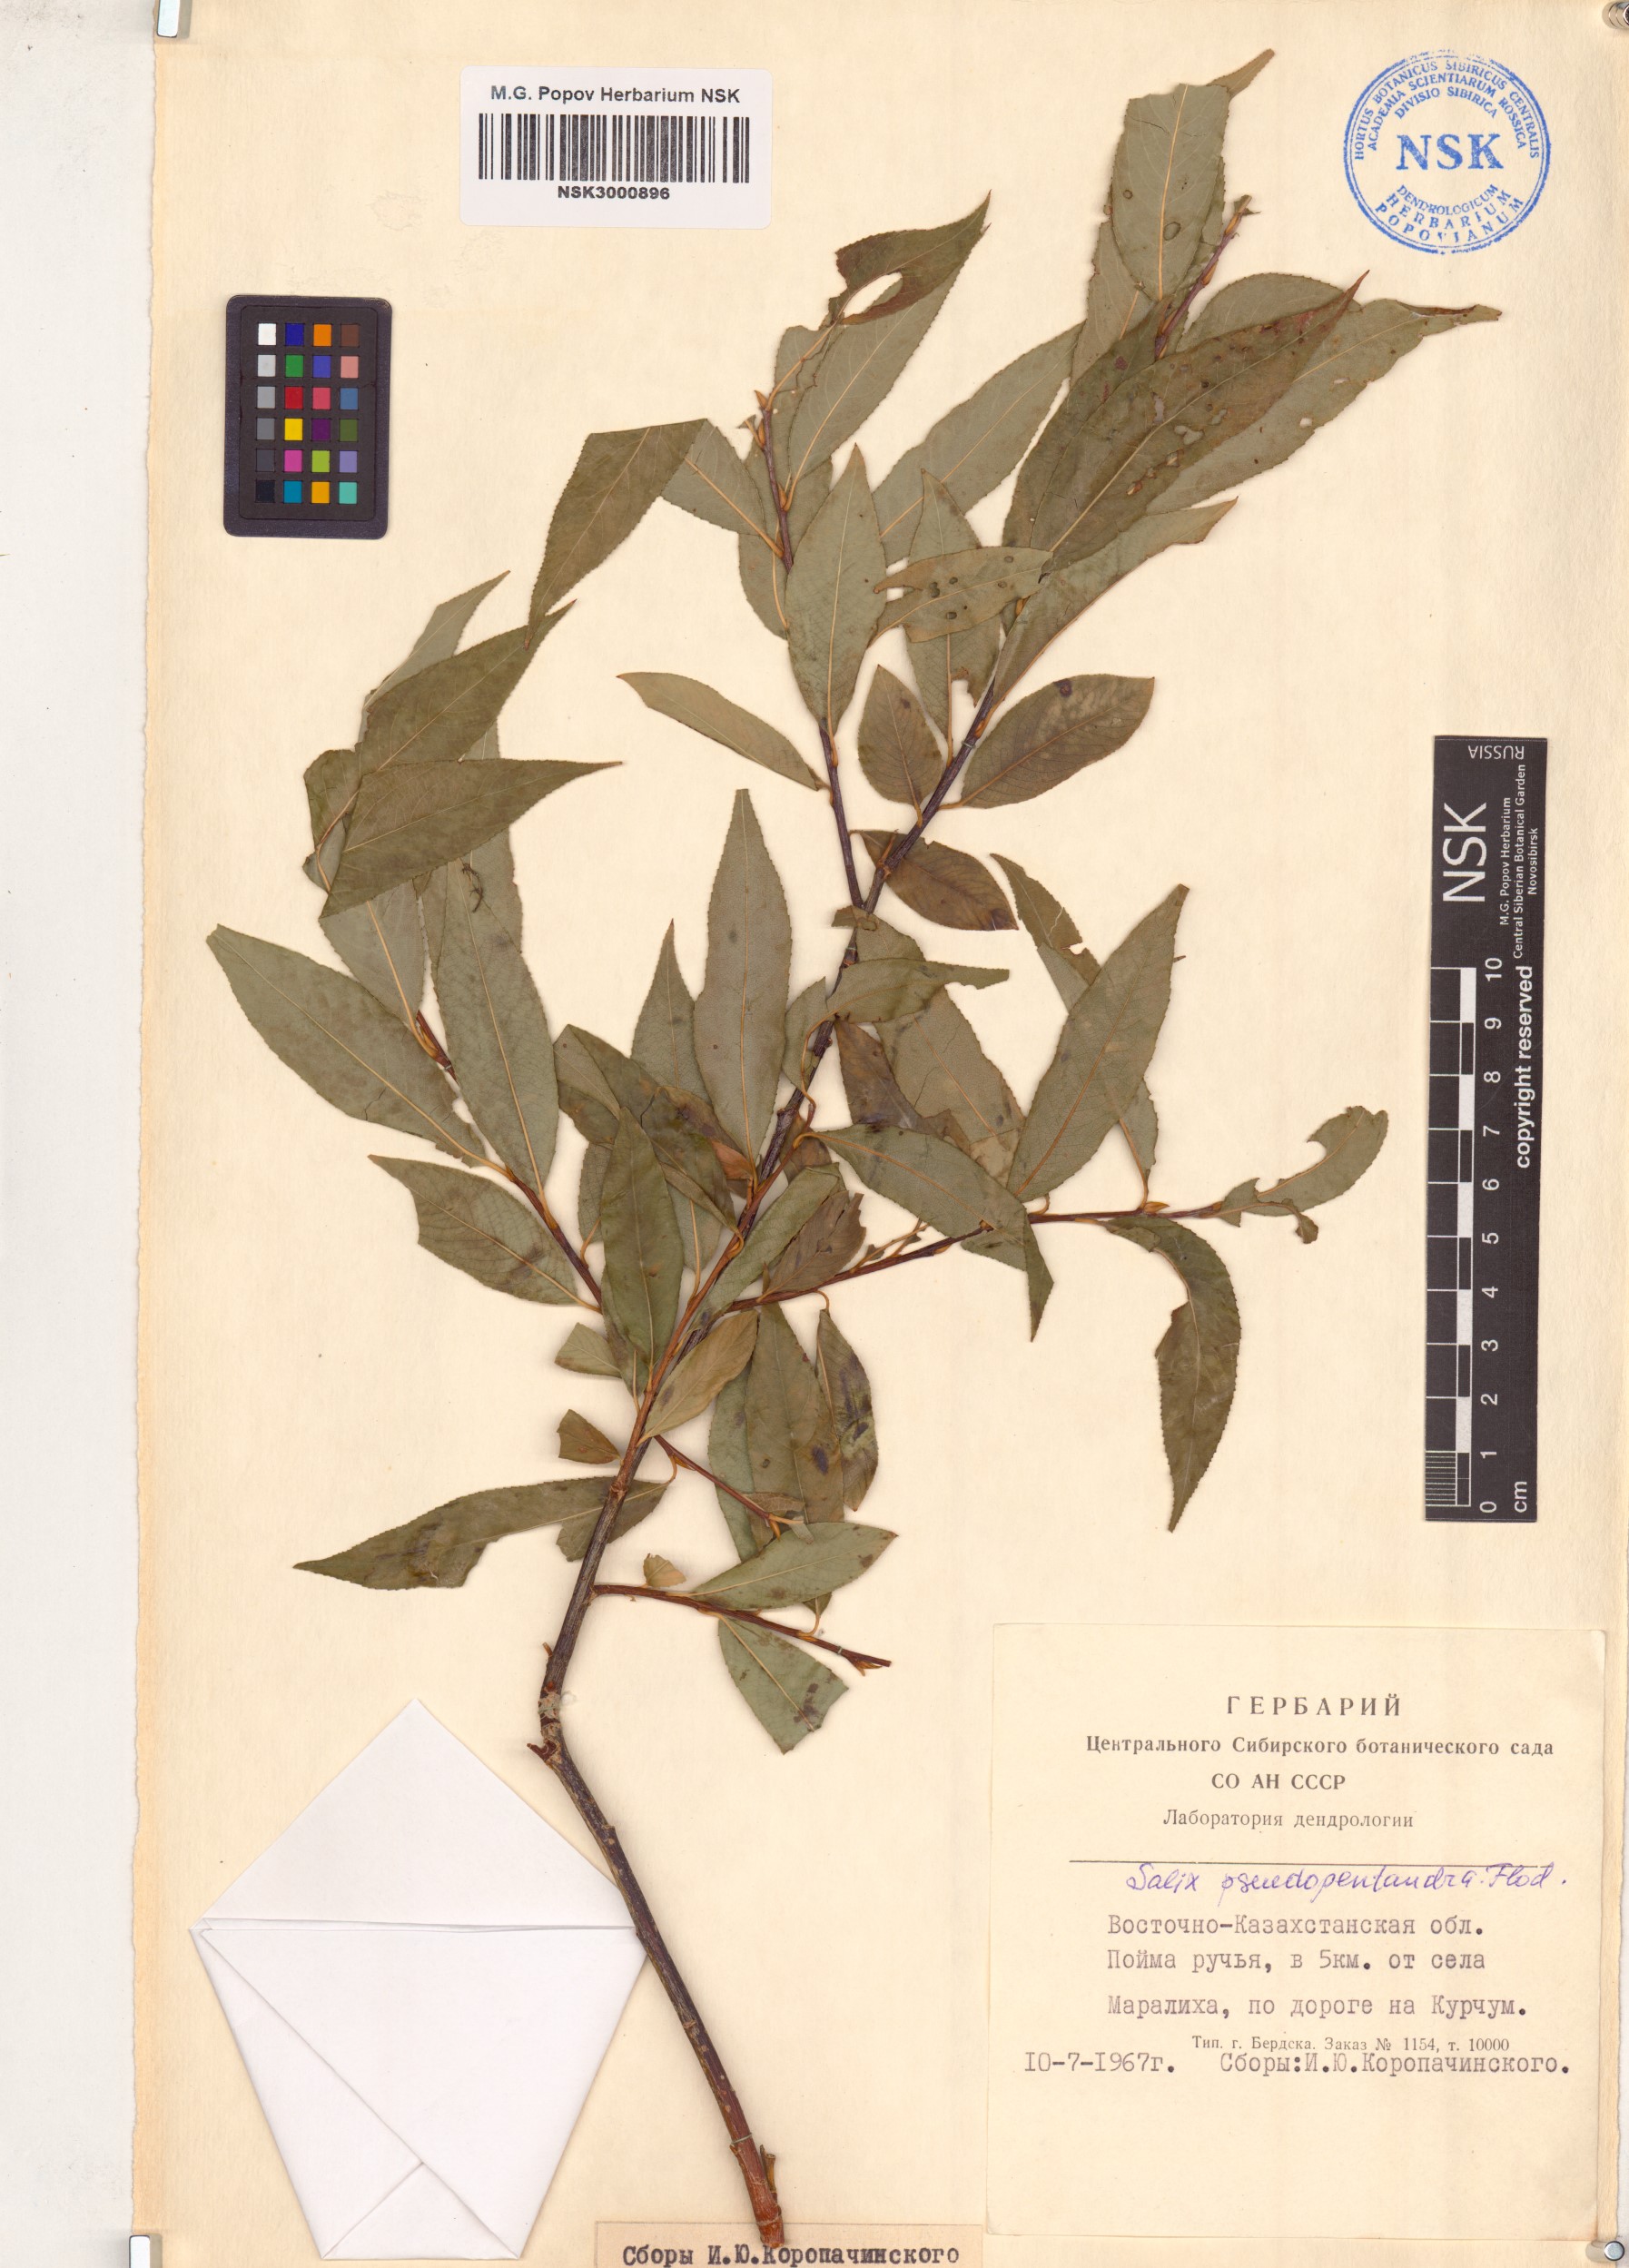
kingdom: Plantae
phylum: Tracheophyta
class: Magnoliopsida
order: Malpighiales
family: Salicaceae
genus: Salix
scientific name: Salix pseudopentandra
